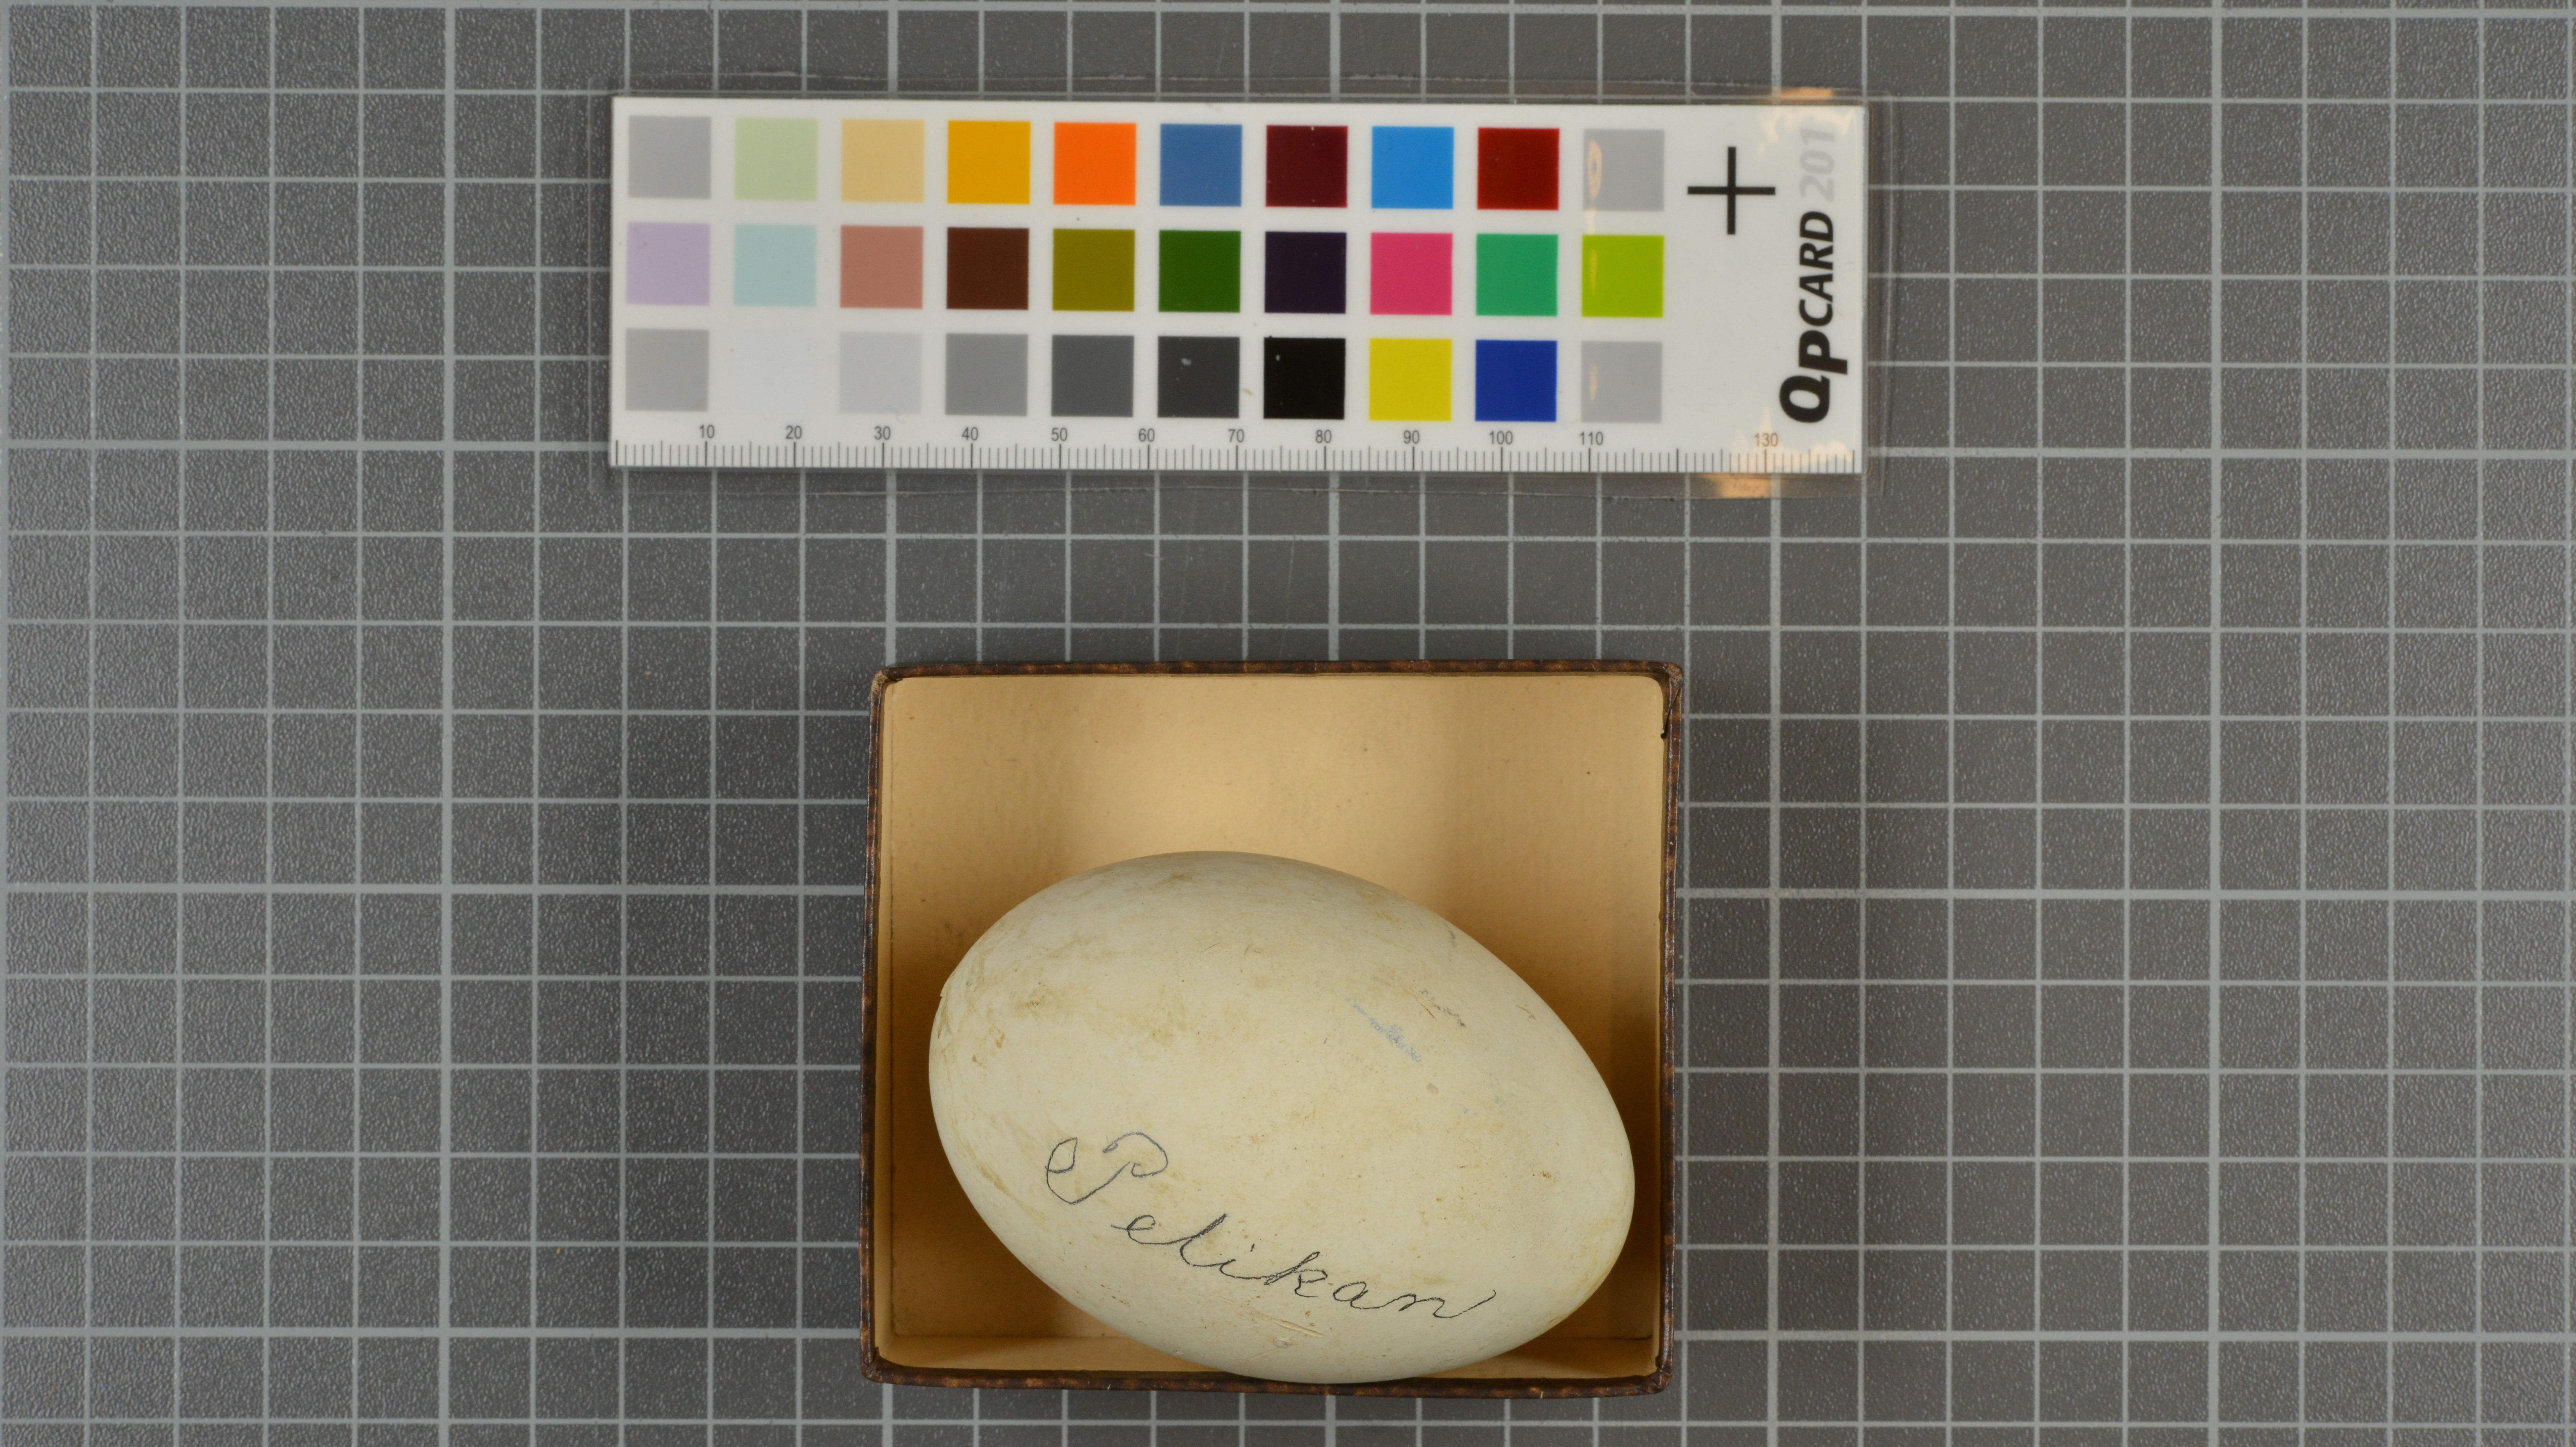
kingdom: Animalia
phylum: Chordata
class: Aves
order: Pelecaniformes
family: Pelecanidae
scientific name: Pelecanidae
